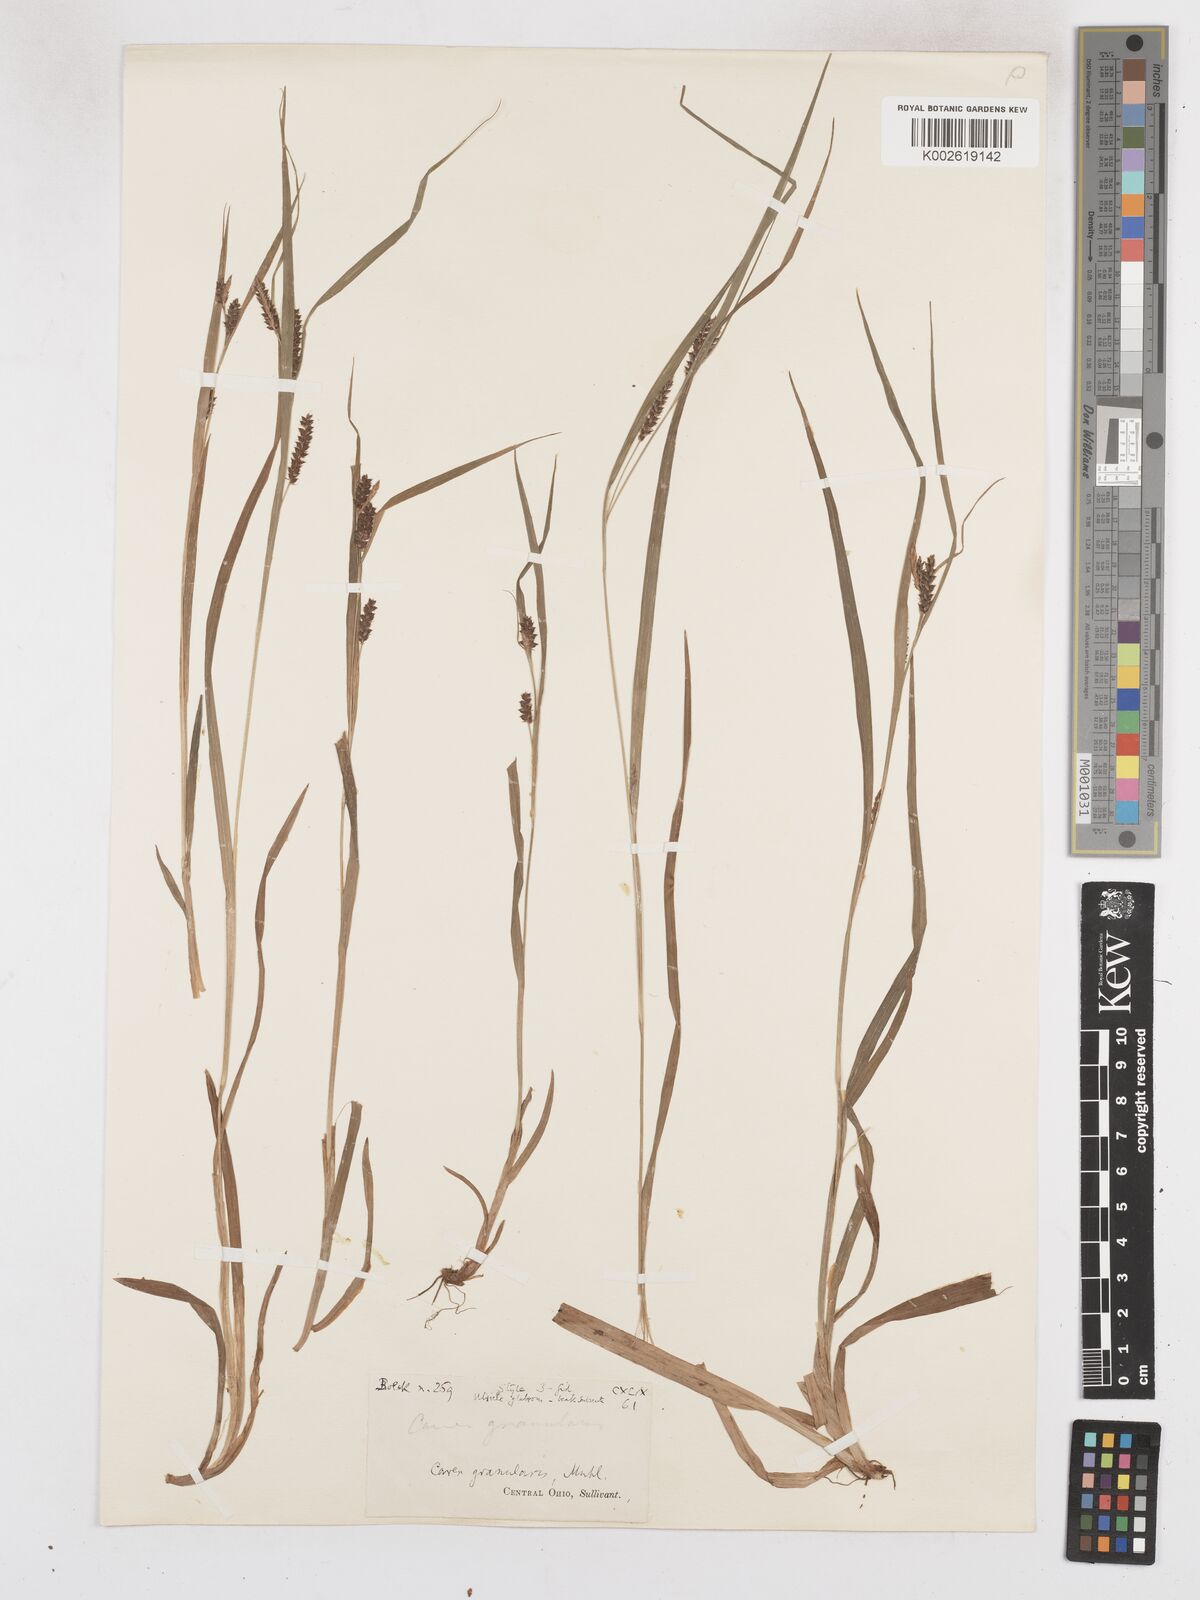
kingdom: Plantae
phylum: Tracheophyta
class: Liliopsida
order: Poales
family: Cyperaceae
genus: Carex
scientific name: Carex granularis
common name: Granular sedge
